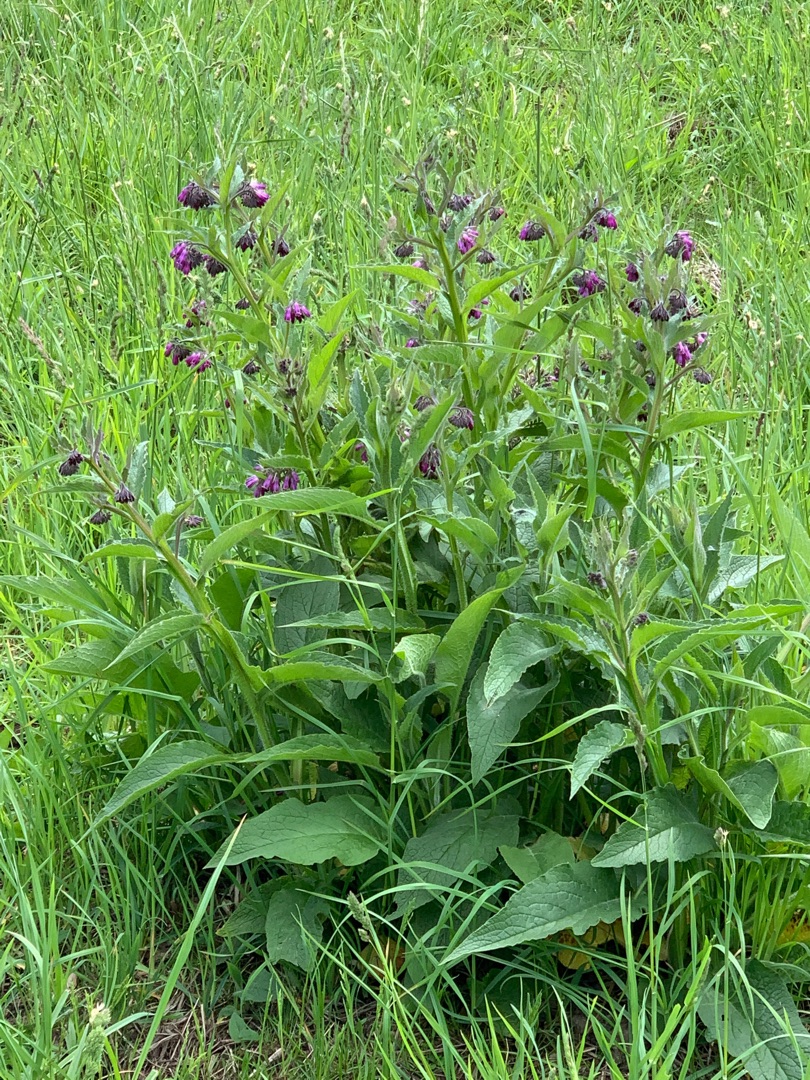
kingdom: Plantae
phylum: Tracheophyta
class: Magnoliopsida
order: Boraginales
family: Boraginaceae
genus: Symphytum
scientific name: Symphytum officinale
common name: Læge-kulsukker
